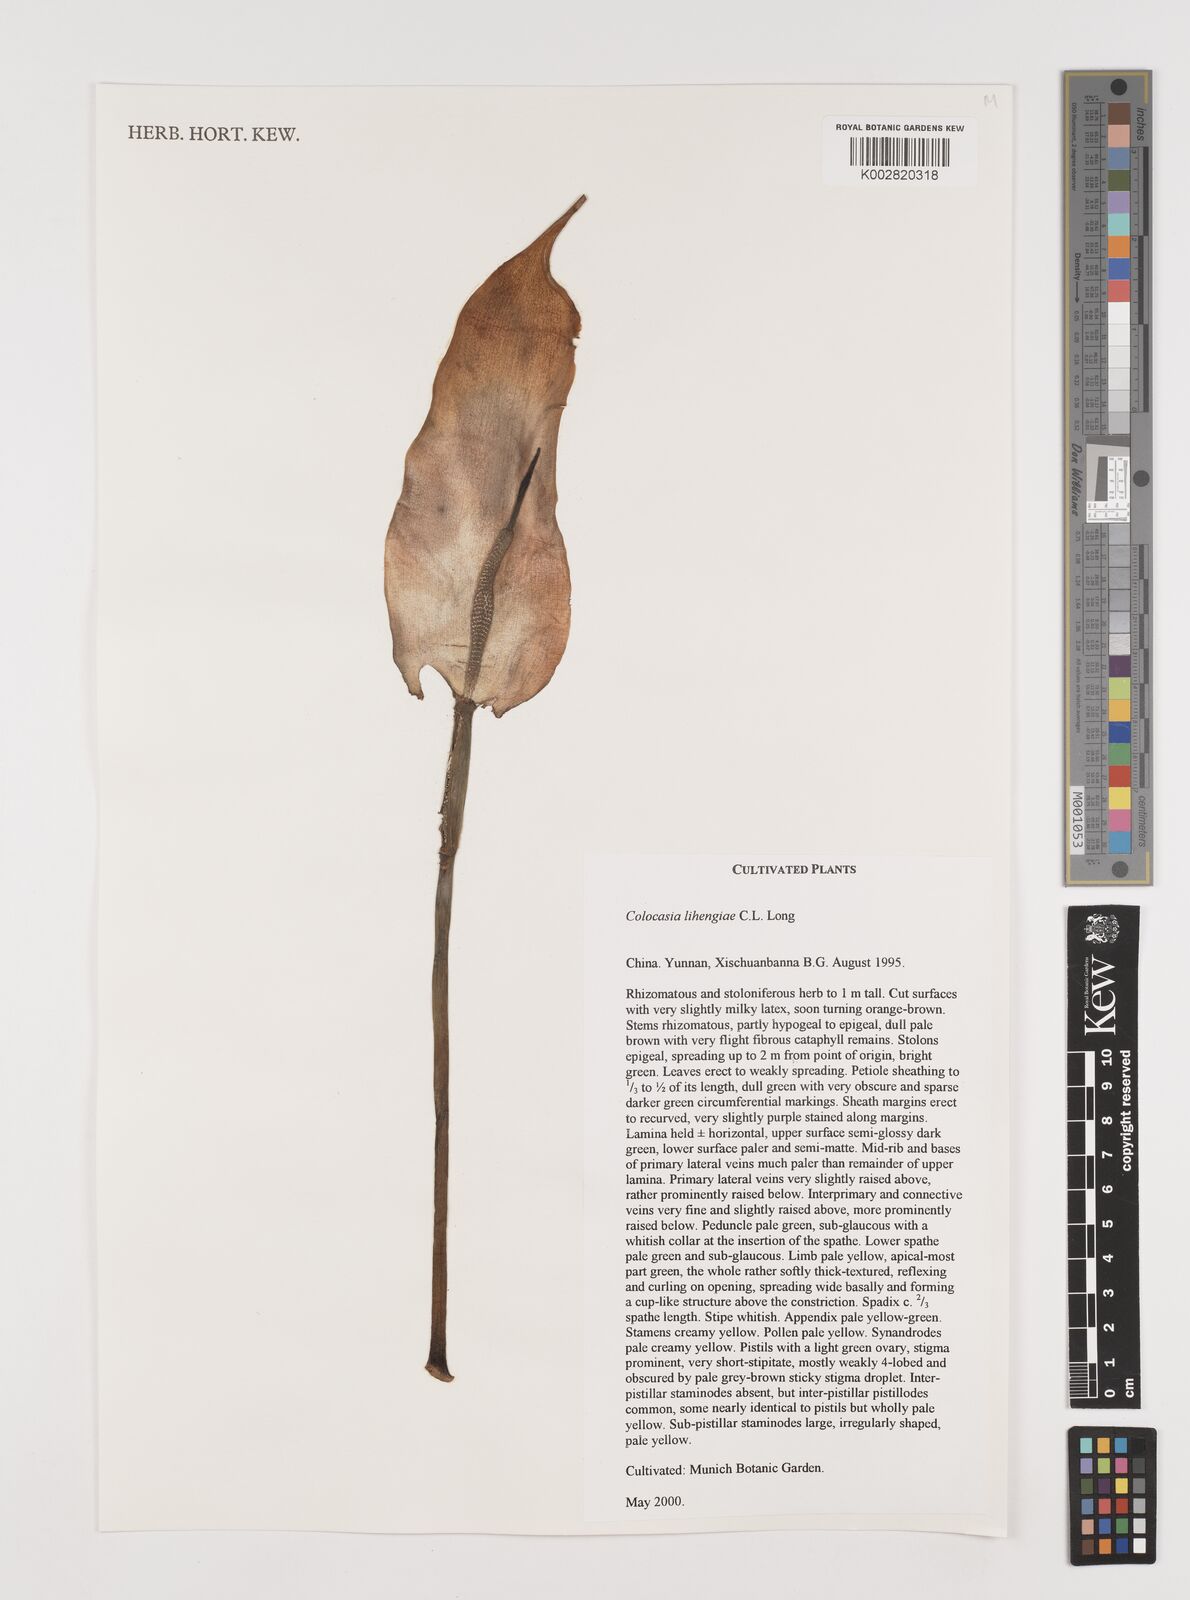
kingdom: Plantae
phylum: Tracheophyta
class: Liliopsida
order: Alismatales
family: Araceae
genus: Colocasia
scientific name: Colocasia lihengiae
